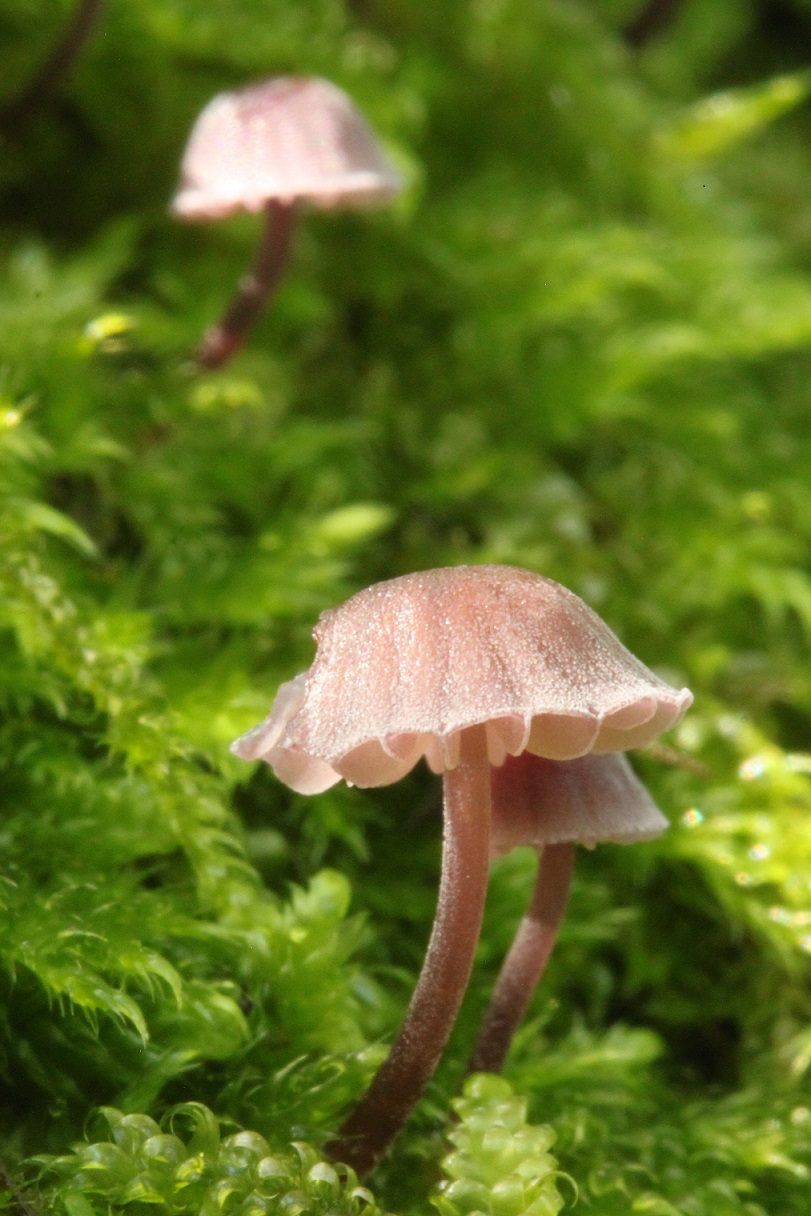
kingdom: Fungi
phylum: Basidiomycota
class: Agaricomycetes
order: Agaricales
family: Mycenaceae
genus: Mycena
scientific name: Mycena meliigena
